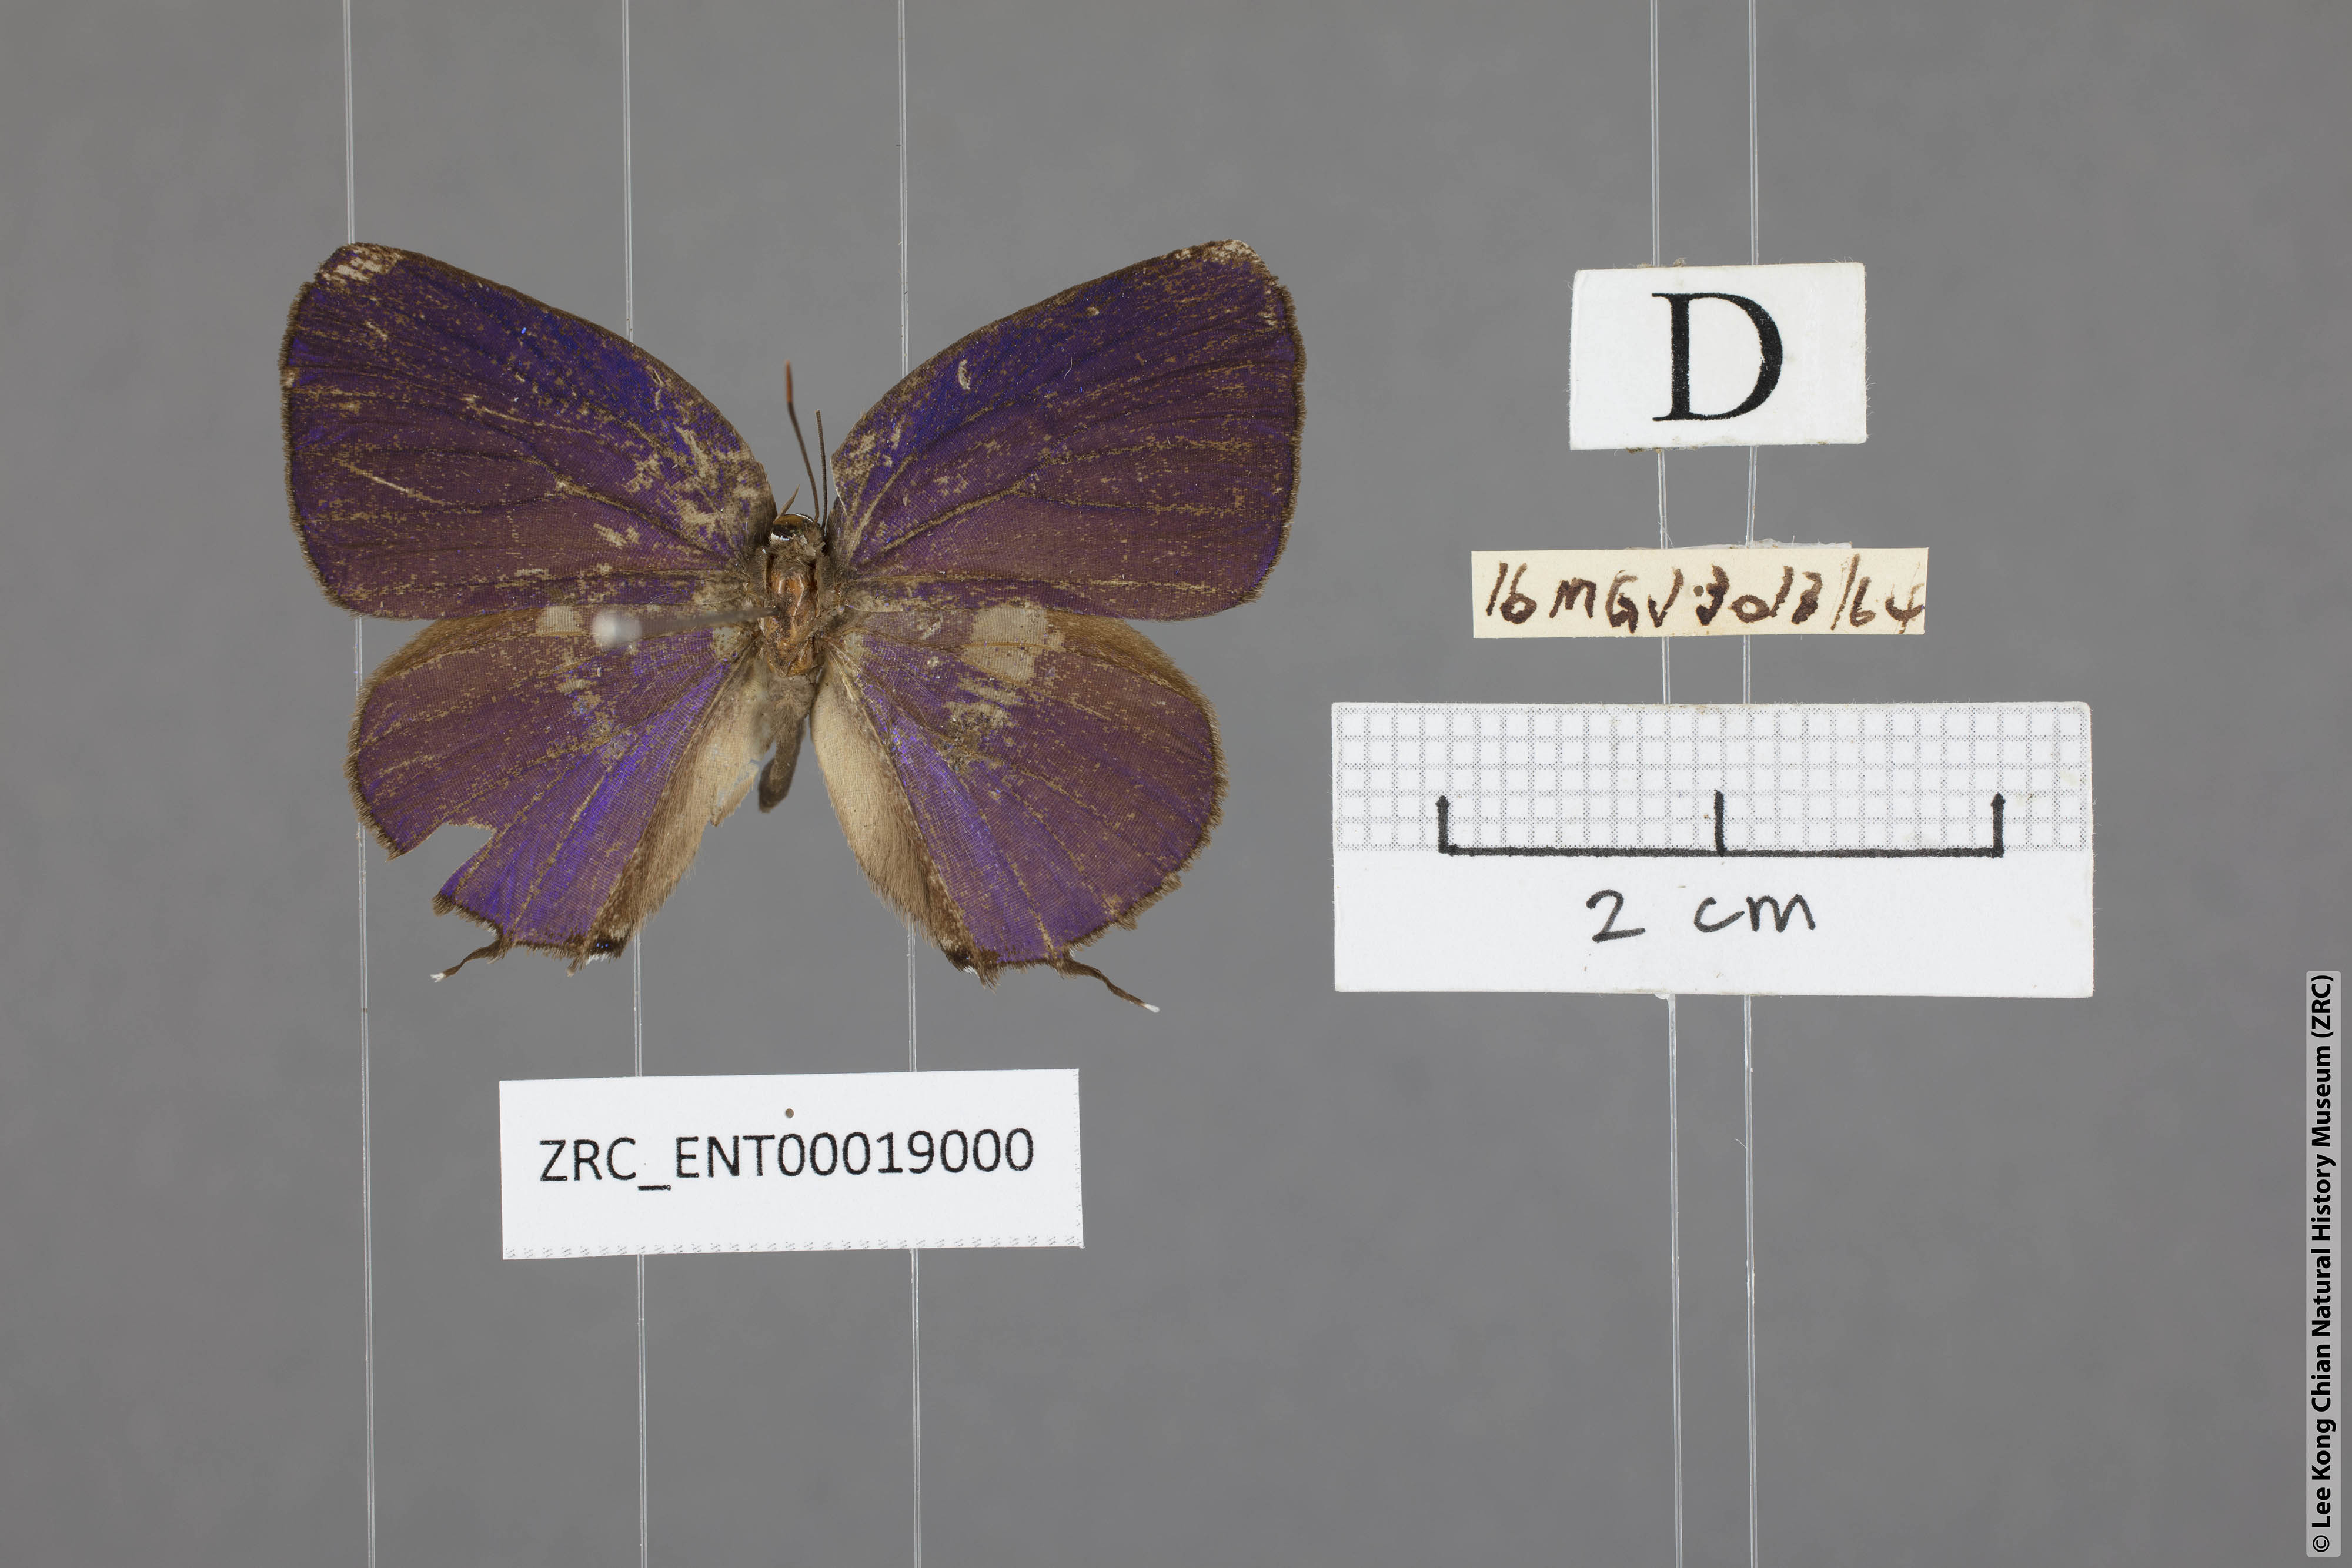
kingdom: Animalia
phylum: Arthropoda
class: Insecta
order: Lepidoptera
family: Lycaenidae
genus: Arhopala
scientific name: Arhopala aedias
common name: Large metallic oakblue
